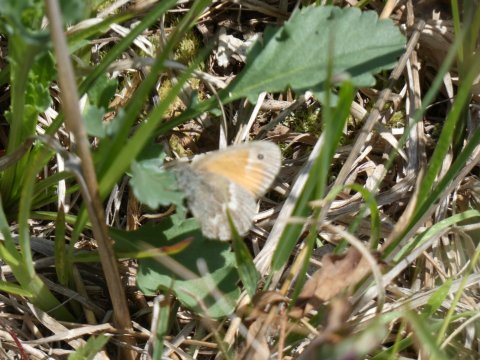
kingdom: Animalia
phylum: Arthropoda
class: Insecta
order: Lepidoptera
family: Nymphalidae
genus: Coenonympha
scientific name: Coenonympha tullia
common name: Large Heath
